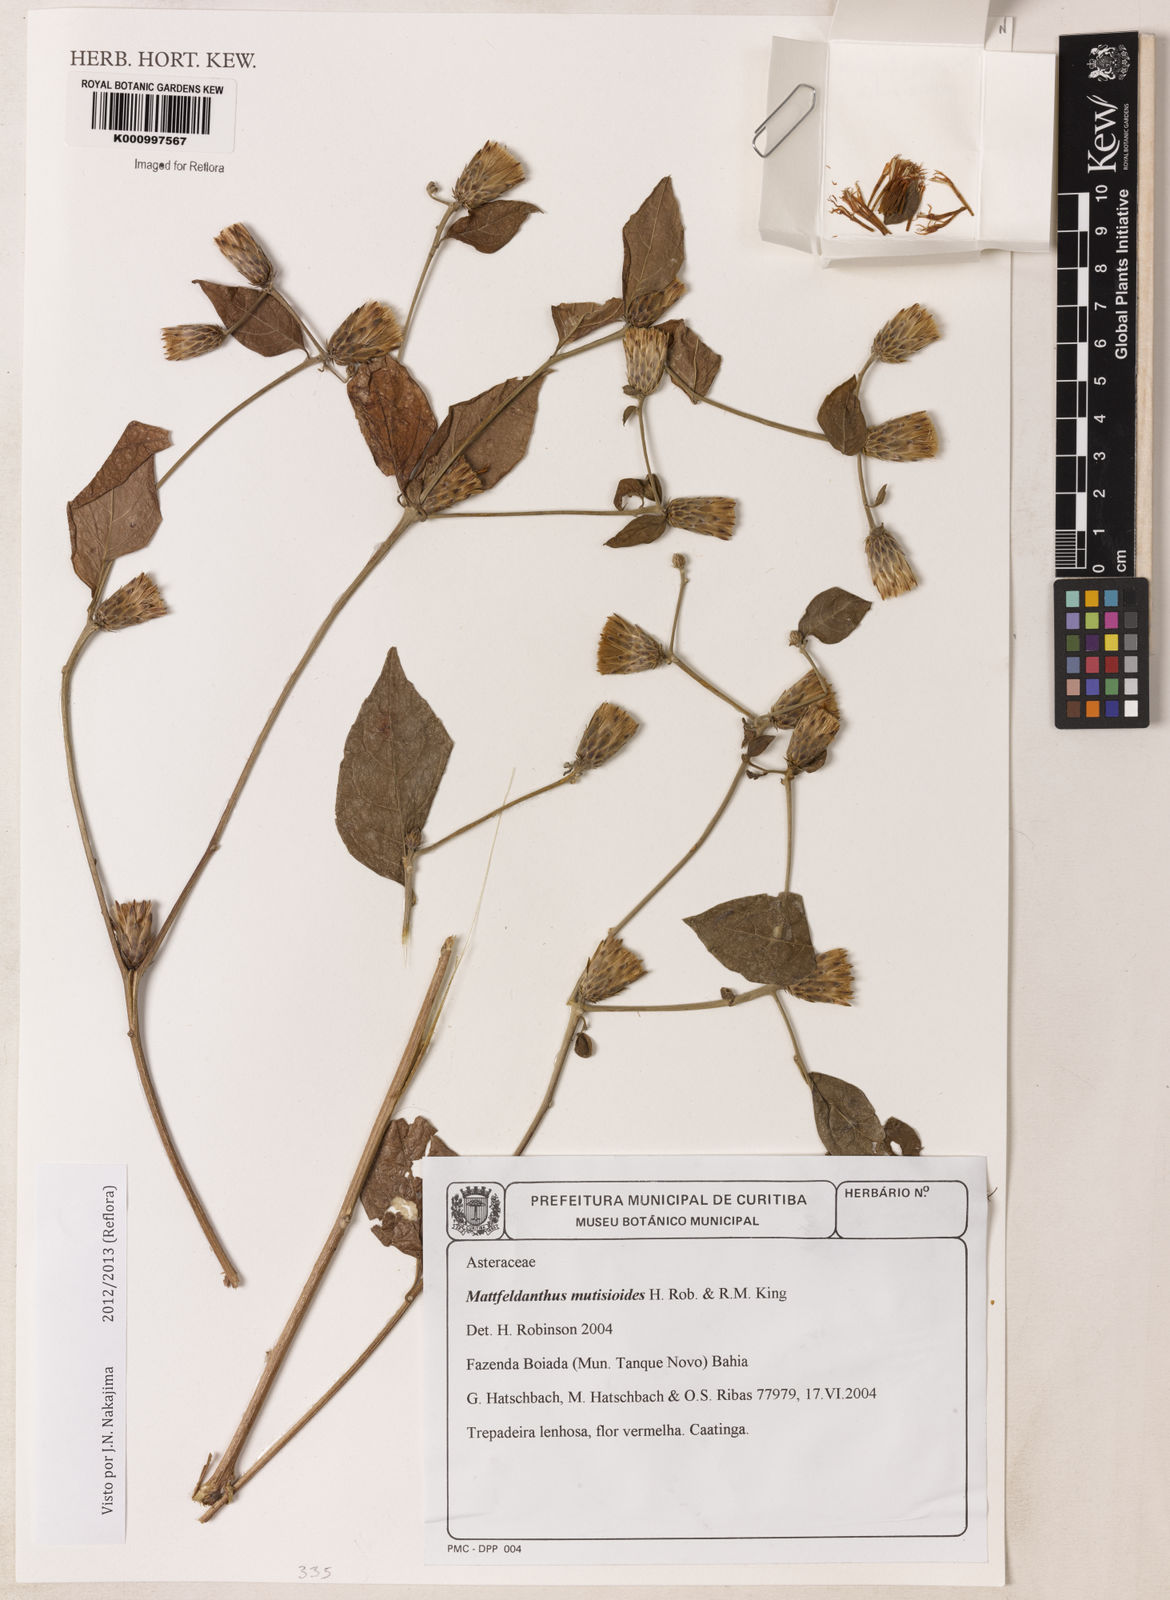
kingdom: Plantae
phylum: Tracheophyta
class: Magnoliopsida
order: Asterales
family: Asteraceae
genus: Mattfeldanthus
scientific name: Mattfeldanthus mutisioides
